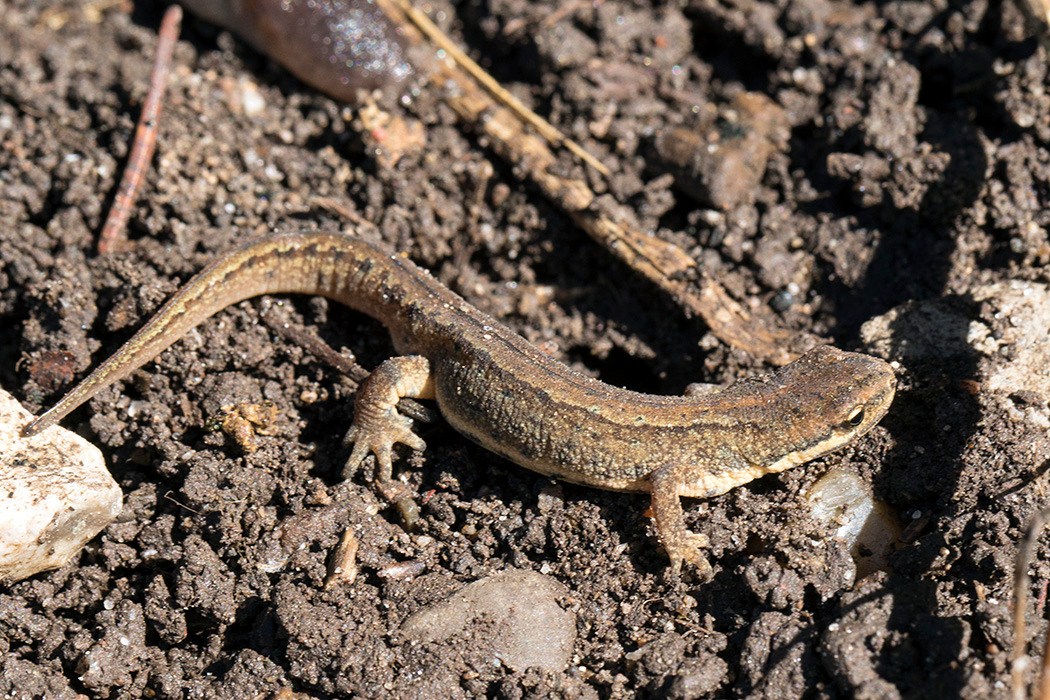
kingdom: Animalia
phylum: Chordata
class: Amphibia
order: Caudata
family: Salamandridae
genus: Lissotriton
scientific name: Lissotriton vulgaris
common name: Lille vandsalamander
